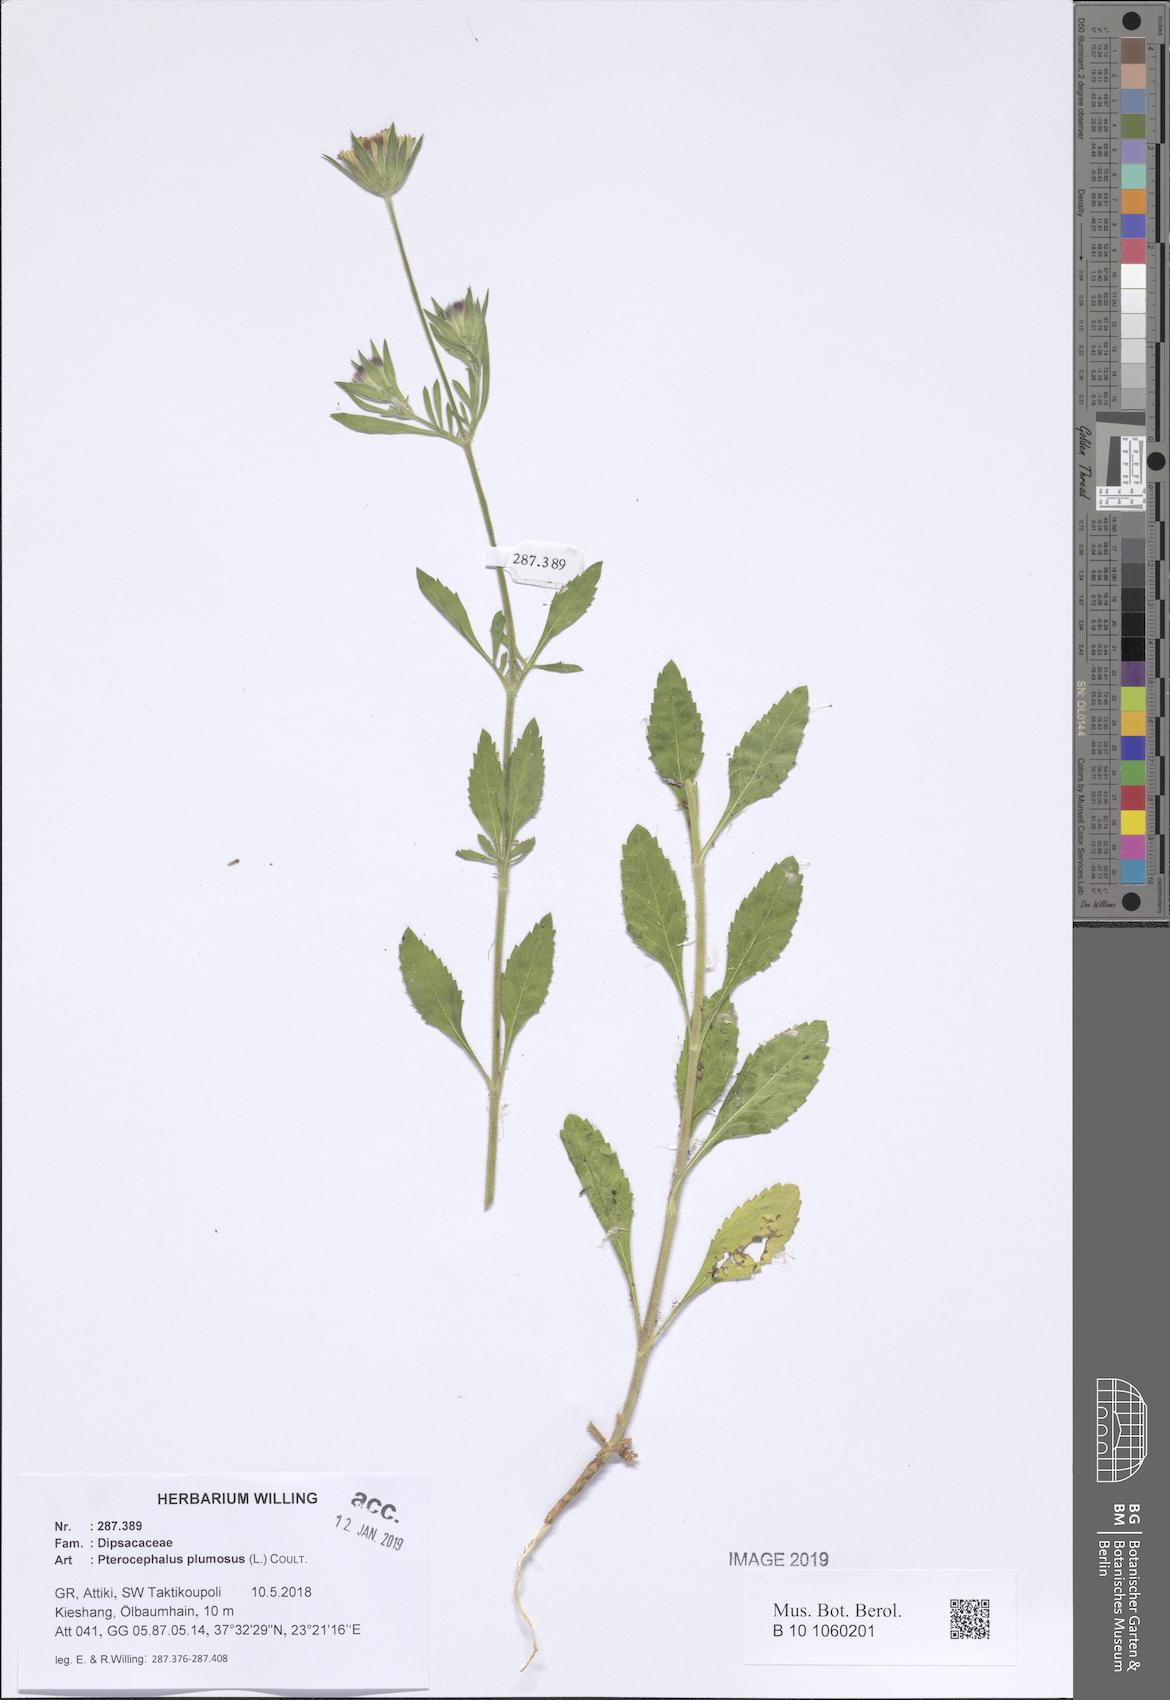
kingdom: Plantae
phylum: Tracheophyta
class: Magnoliopsida
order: Dipsacales
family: Caprifoliaceae
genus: Pterocephalus
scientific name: Pterocephalus plumosus
